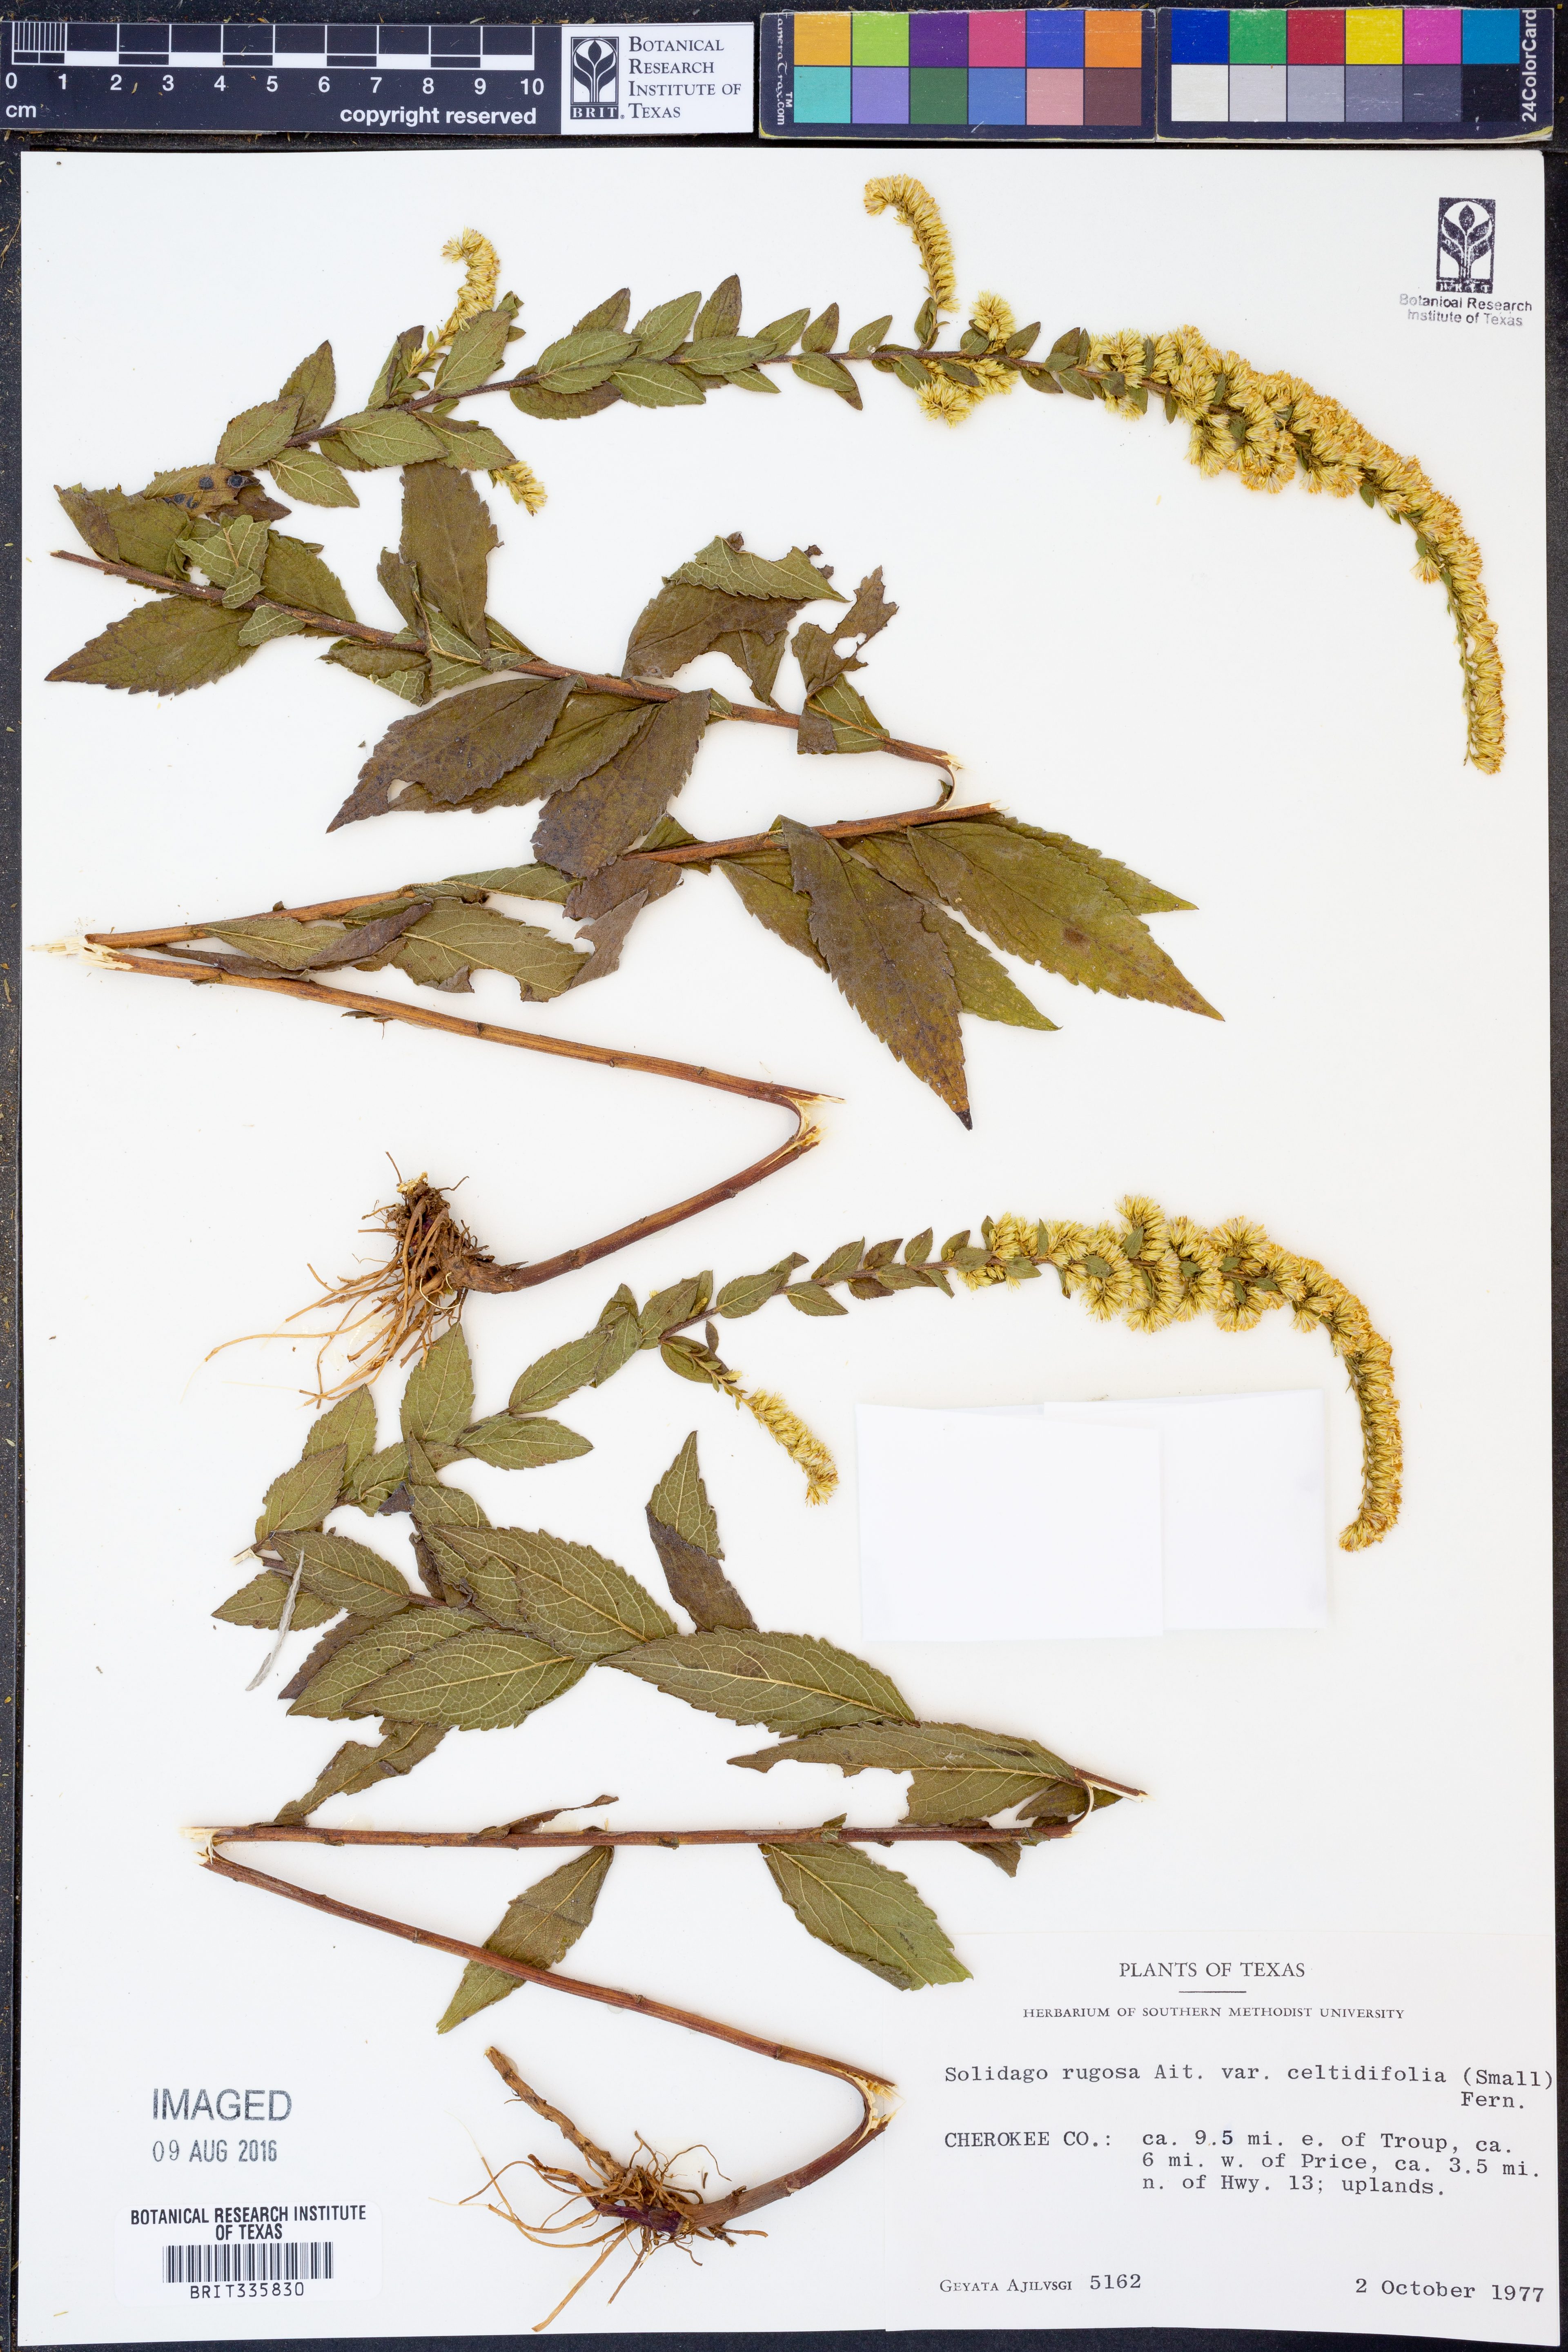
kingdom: Plantae
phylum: Tracheophyta
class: Magnoliopsida
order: Asterales
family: Asteraceae
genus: Solidago
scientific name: Solidago rugosa
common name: Rough-stemmed goldenrod
